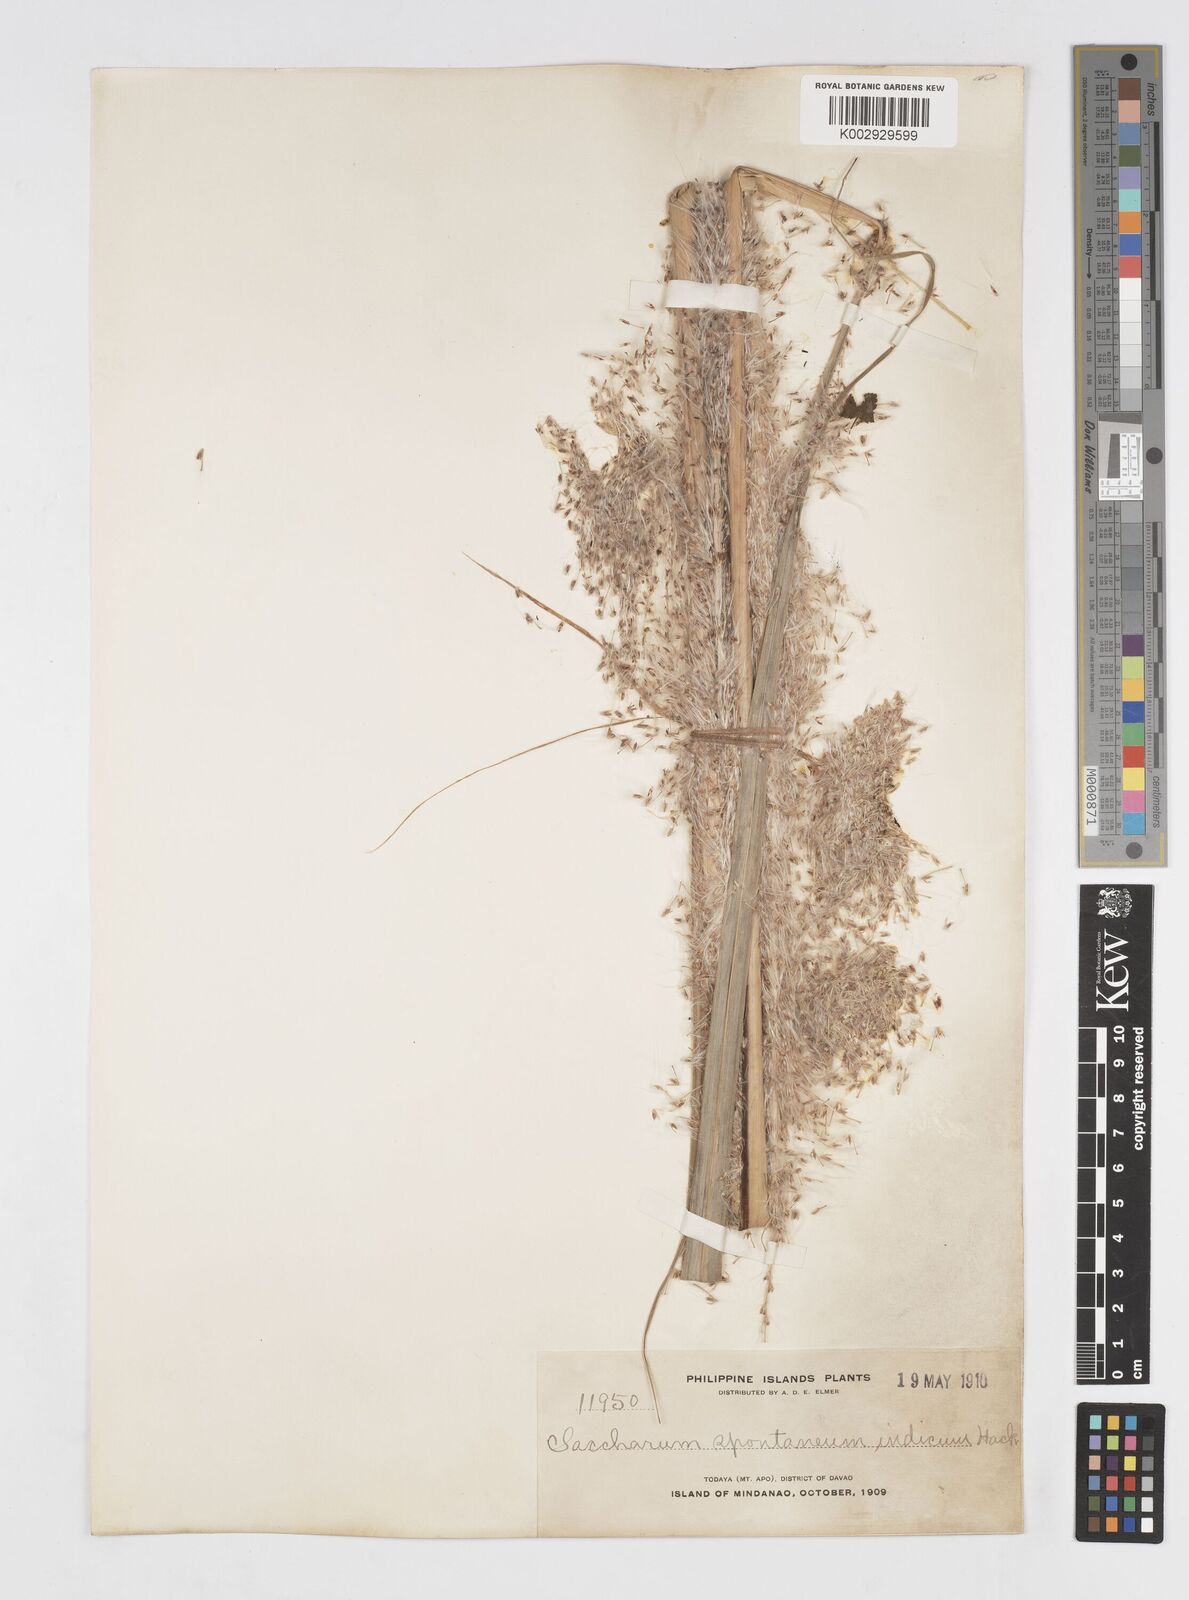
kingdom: Plantae
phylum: Tracheophyta
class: Liliopsida
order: Poales
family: Poaceae
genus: Saccharum
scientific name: Saccharum spontaneum
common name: Wild sugarcane
